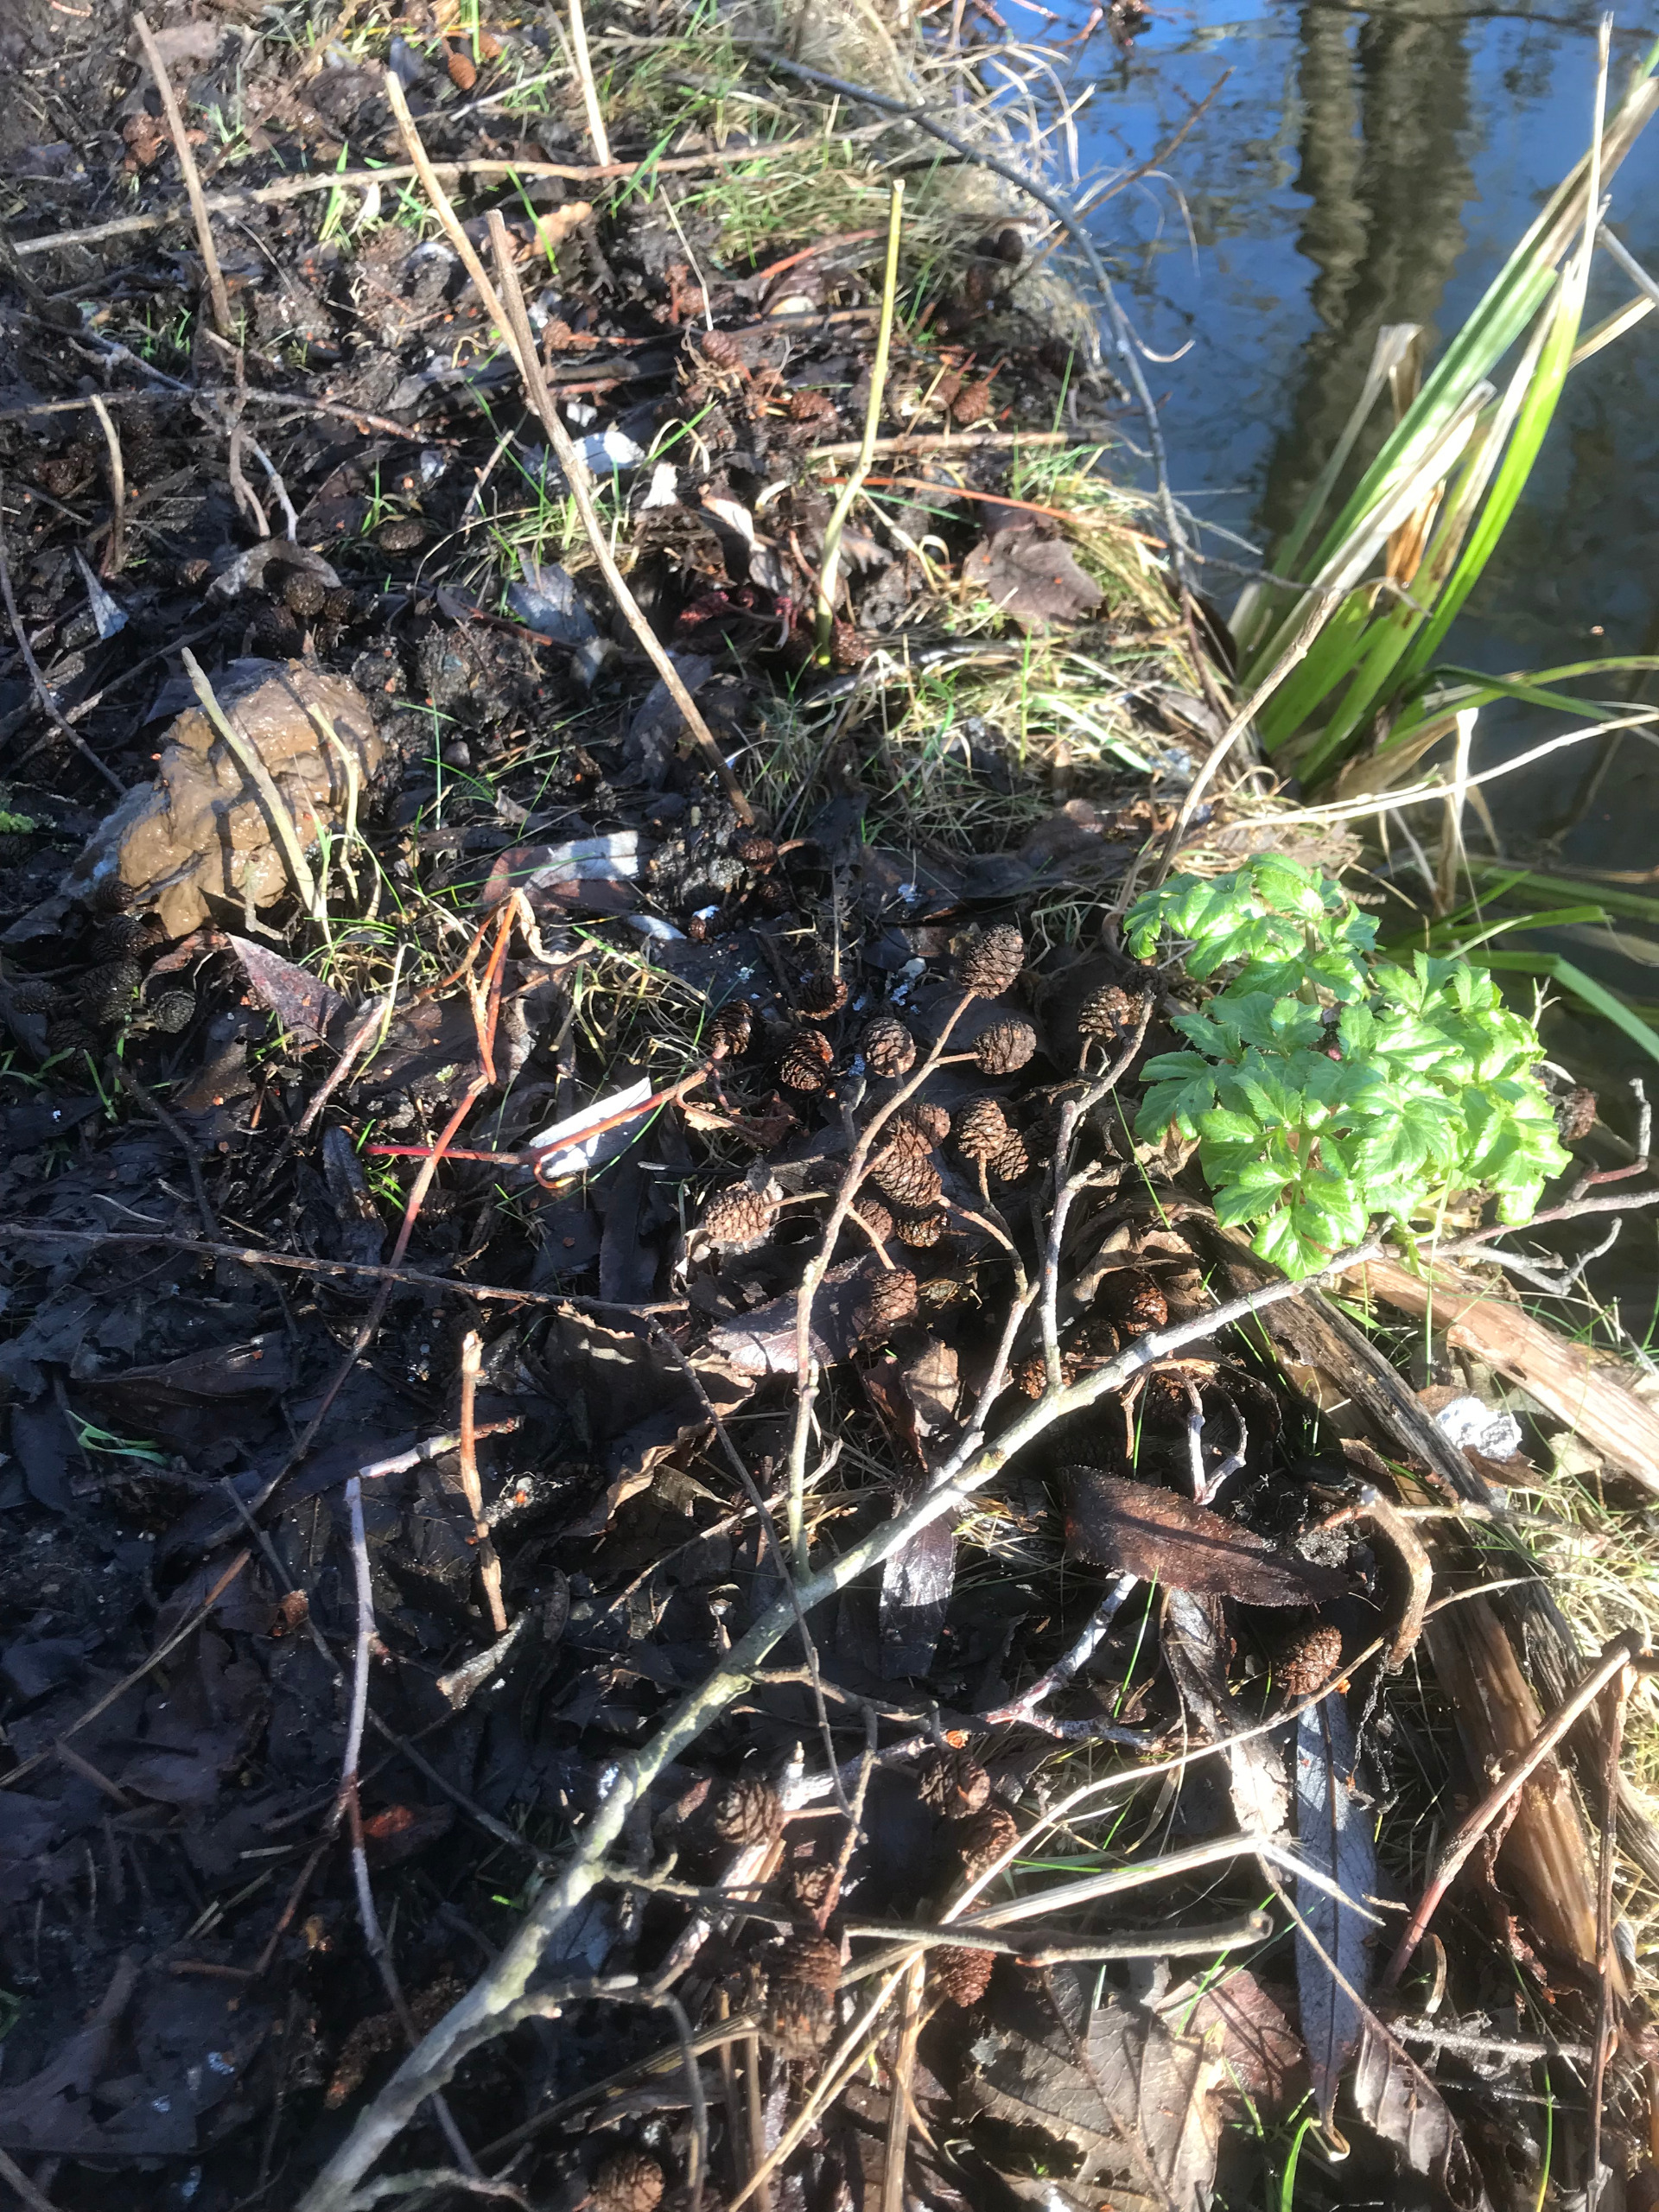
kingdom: Plantae
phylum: Tracheophyta
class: Magnoliopsida
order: Apiales
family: Apiaceae
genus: Angelica
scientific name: Angelica archangelica
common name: Kvan
